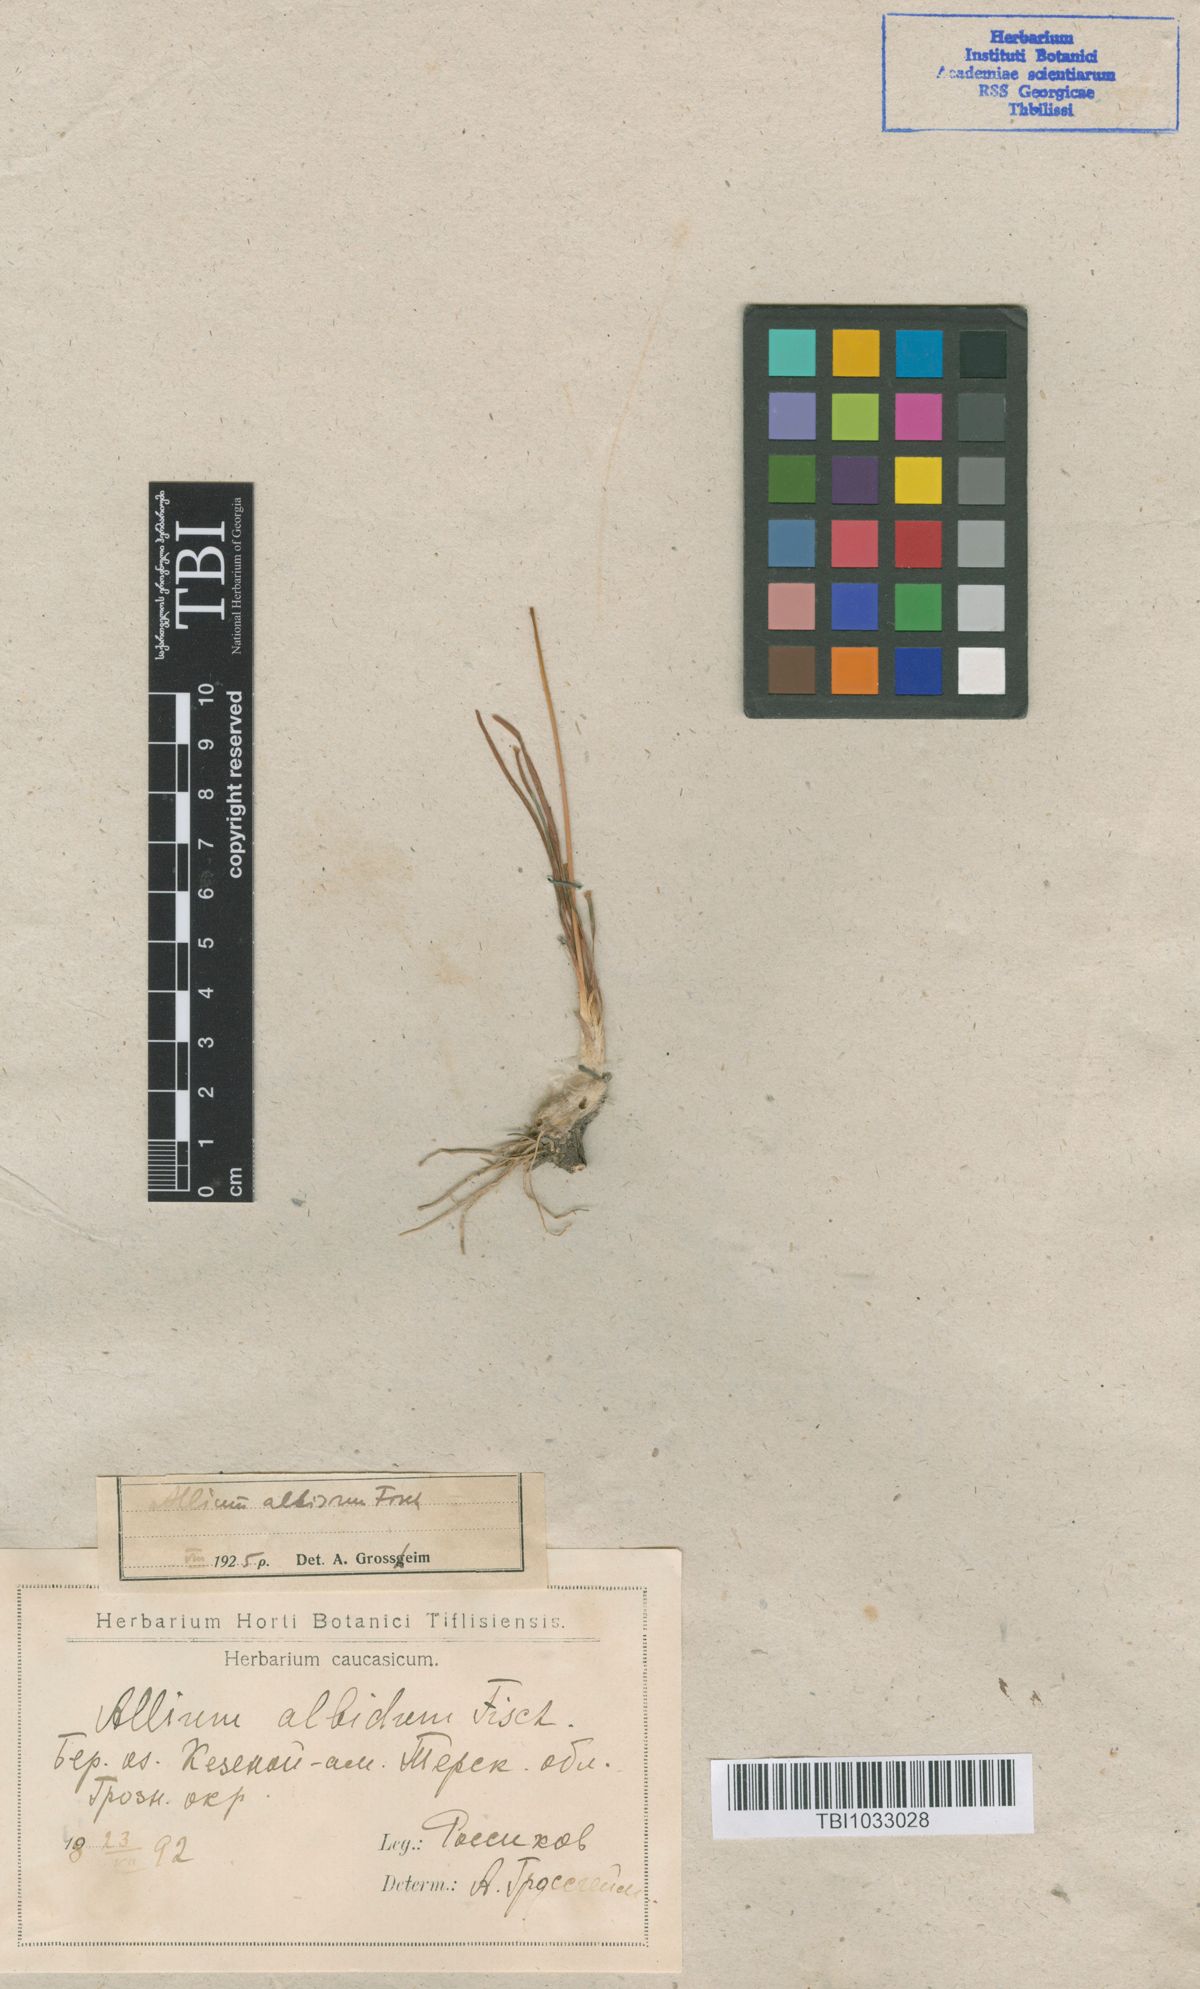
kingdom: Plantae
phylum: Tracheophyta
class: Liliopsida
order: Asparagales
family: Amaryllidaceae
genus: Allium
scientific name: Allium denudatum
